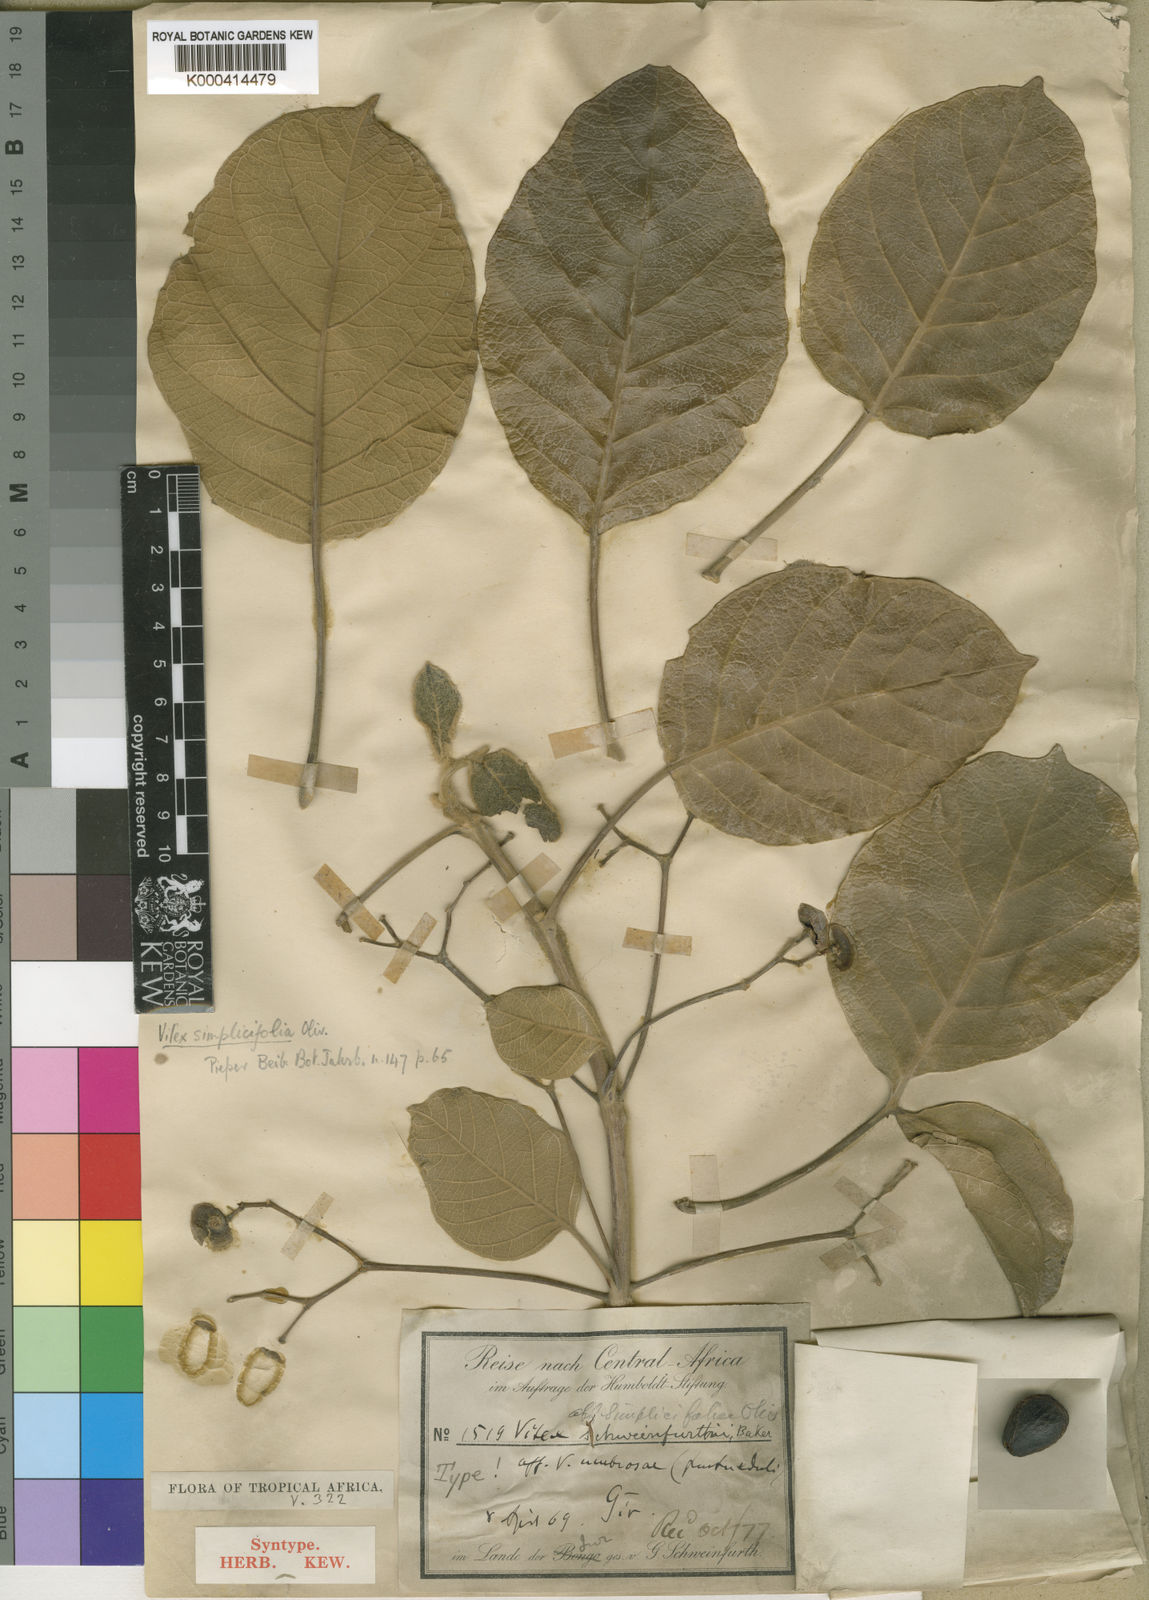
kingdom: Plantae
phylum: Tracheophyta
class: Magnoliopsida
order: Lamiales
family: Lamiaceae
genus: Vitex
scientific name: Vitex madiensis
